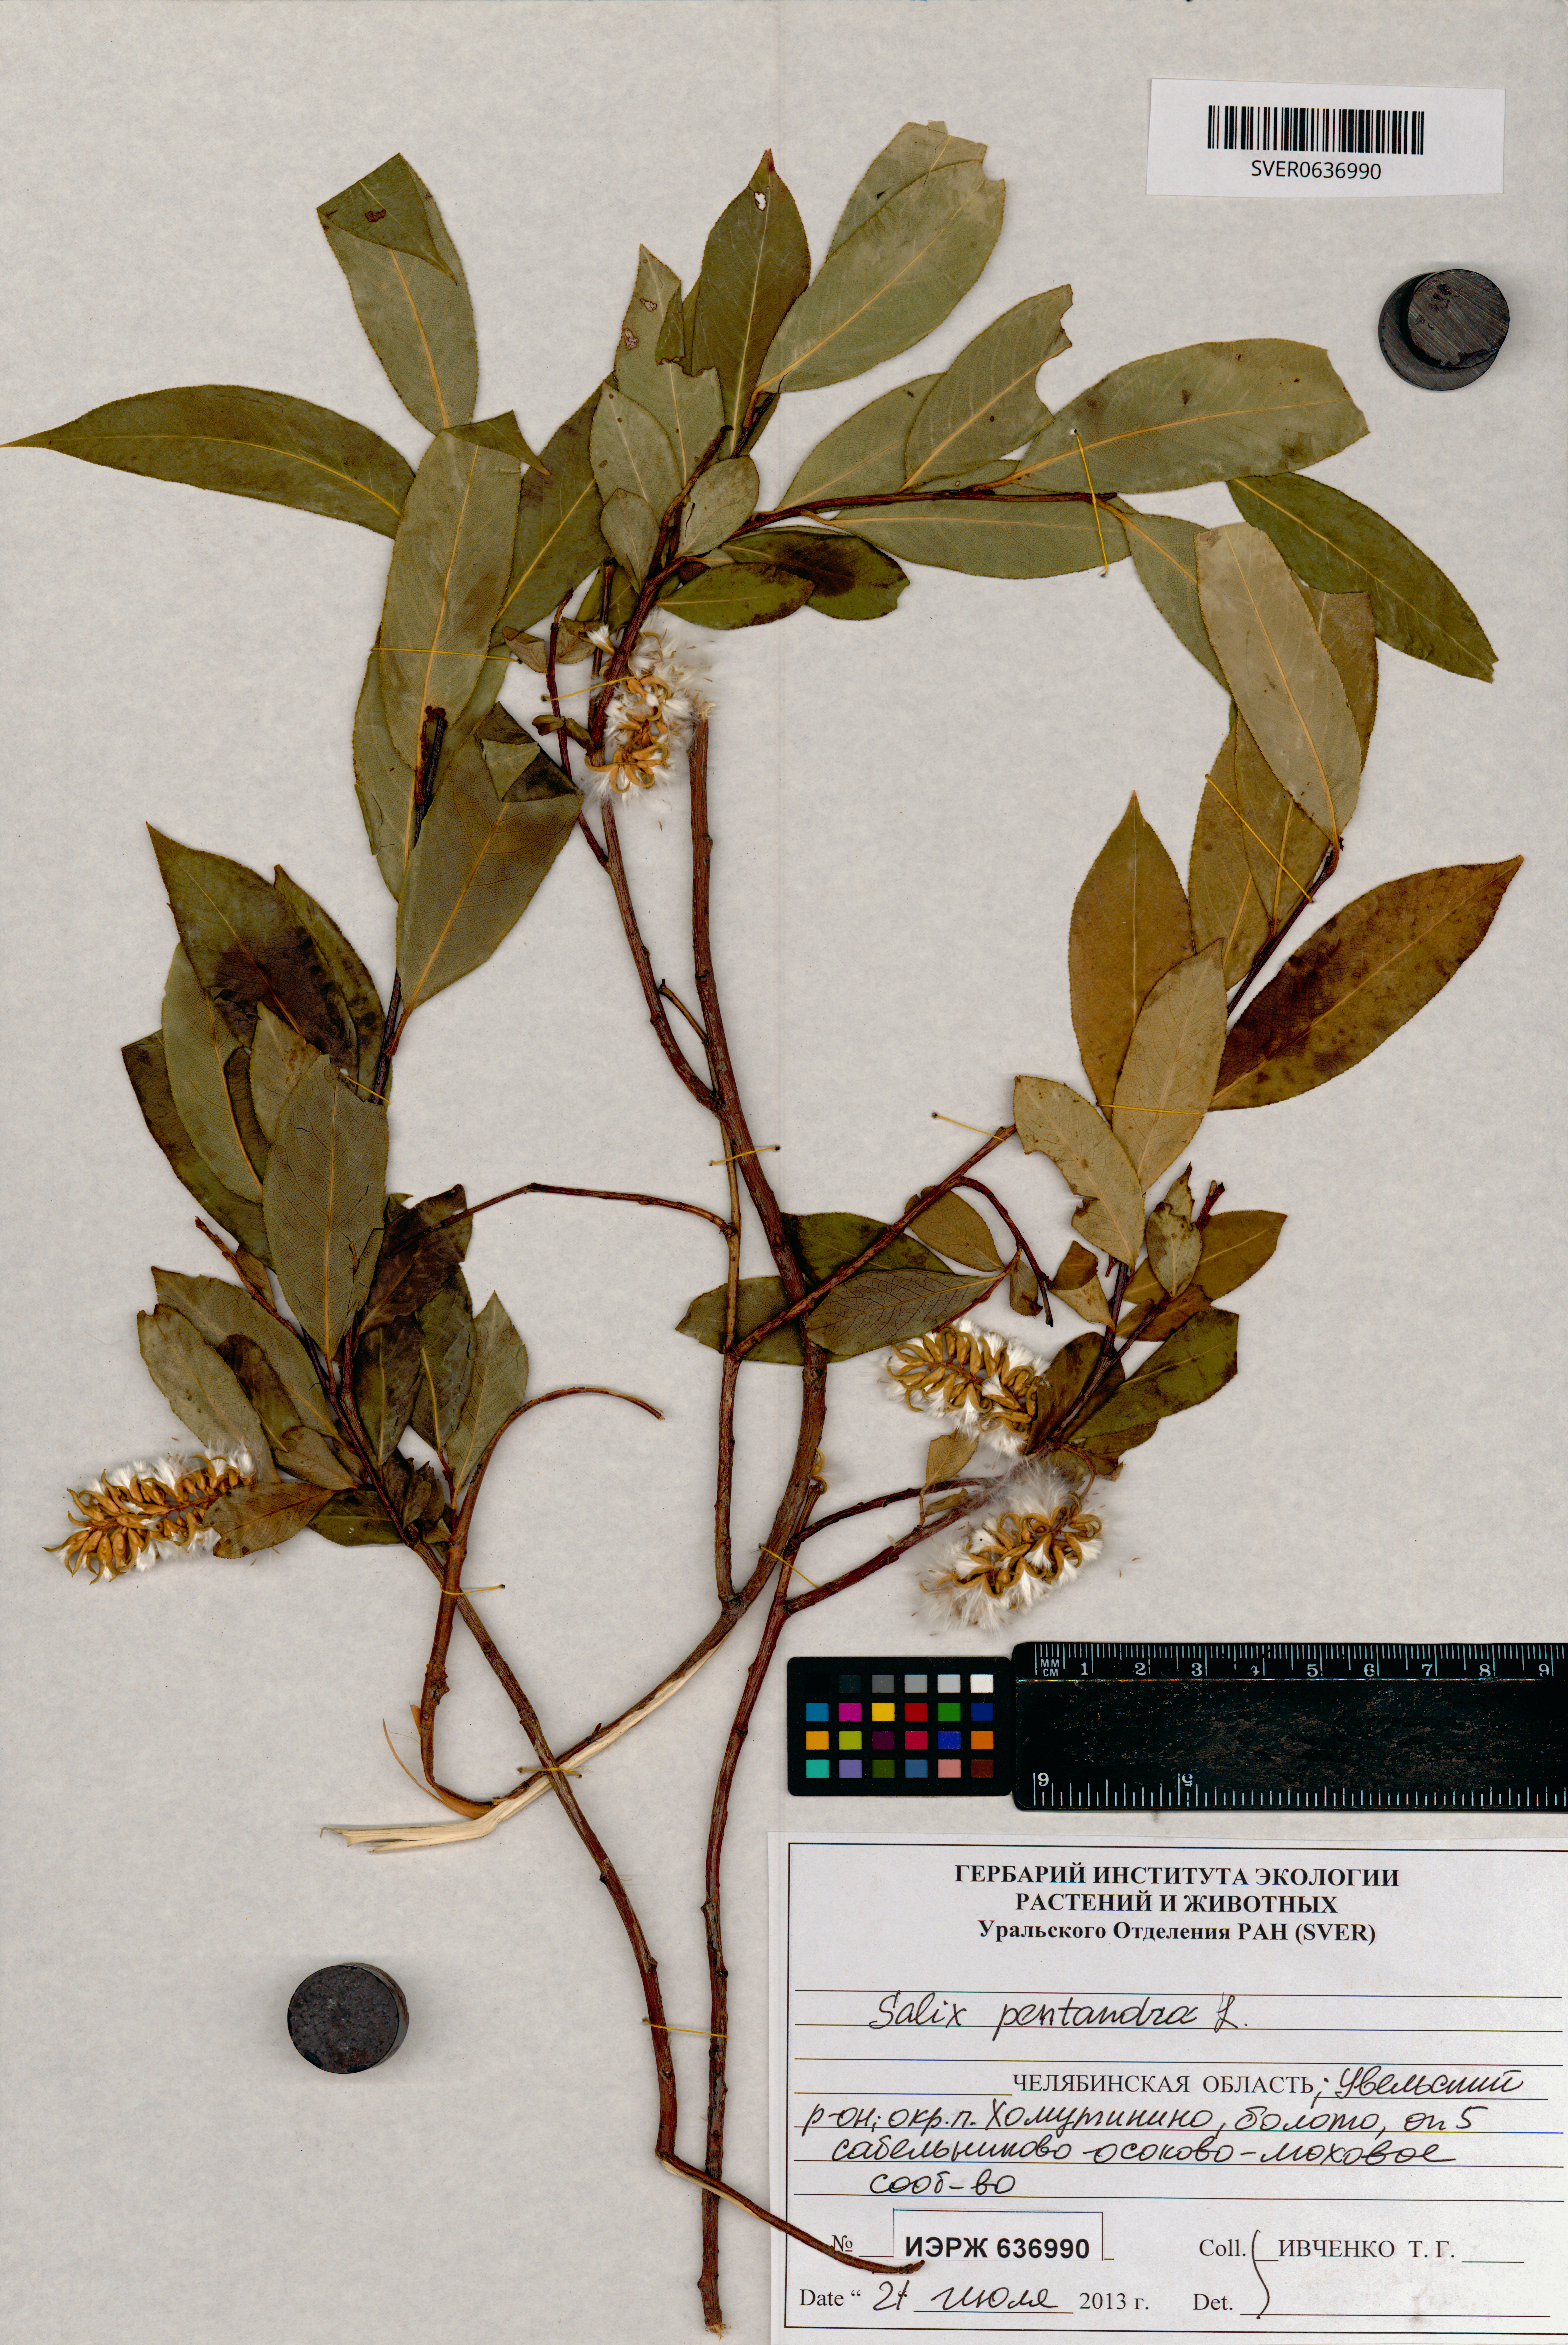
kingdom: Plantae
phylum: Tracheophyta
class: Magnoliopsida
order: Malpighiales
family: Salicaceae
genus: Salix
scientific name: Salix pentandra
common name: Bay willow
